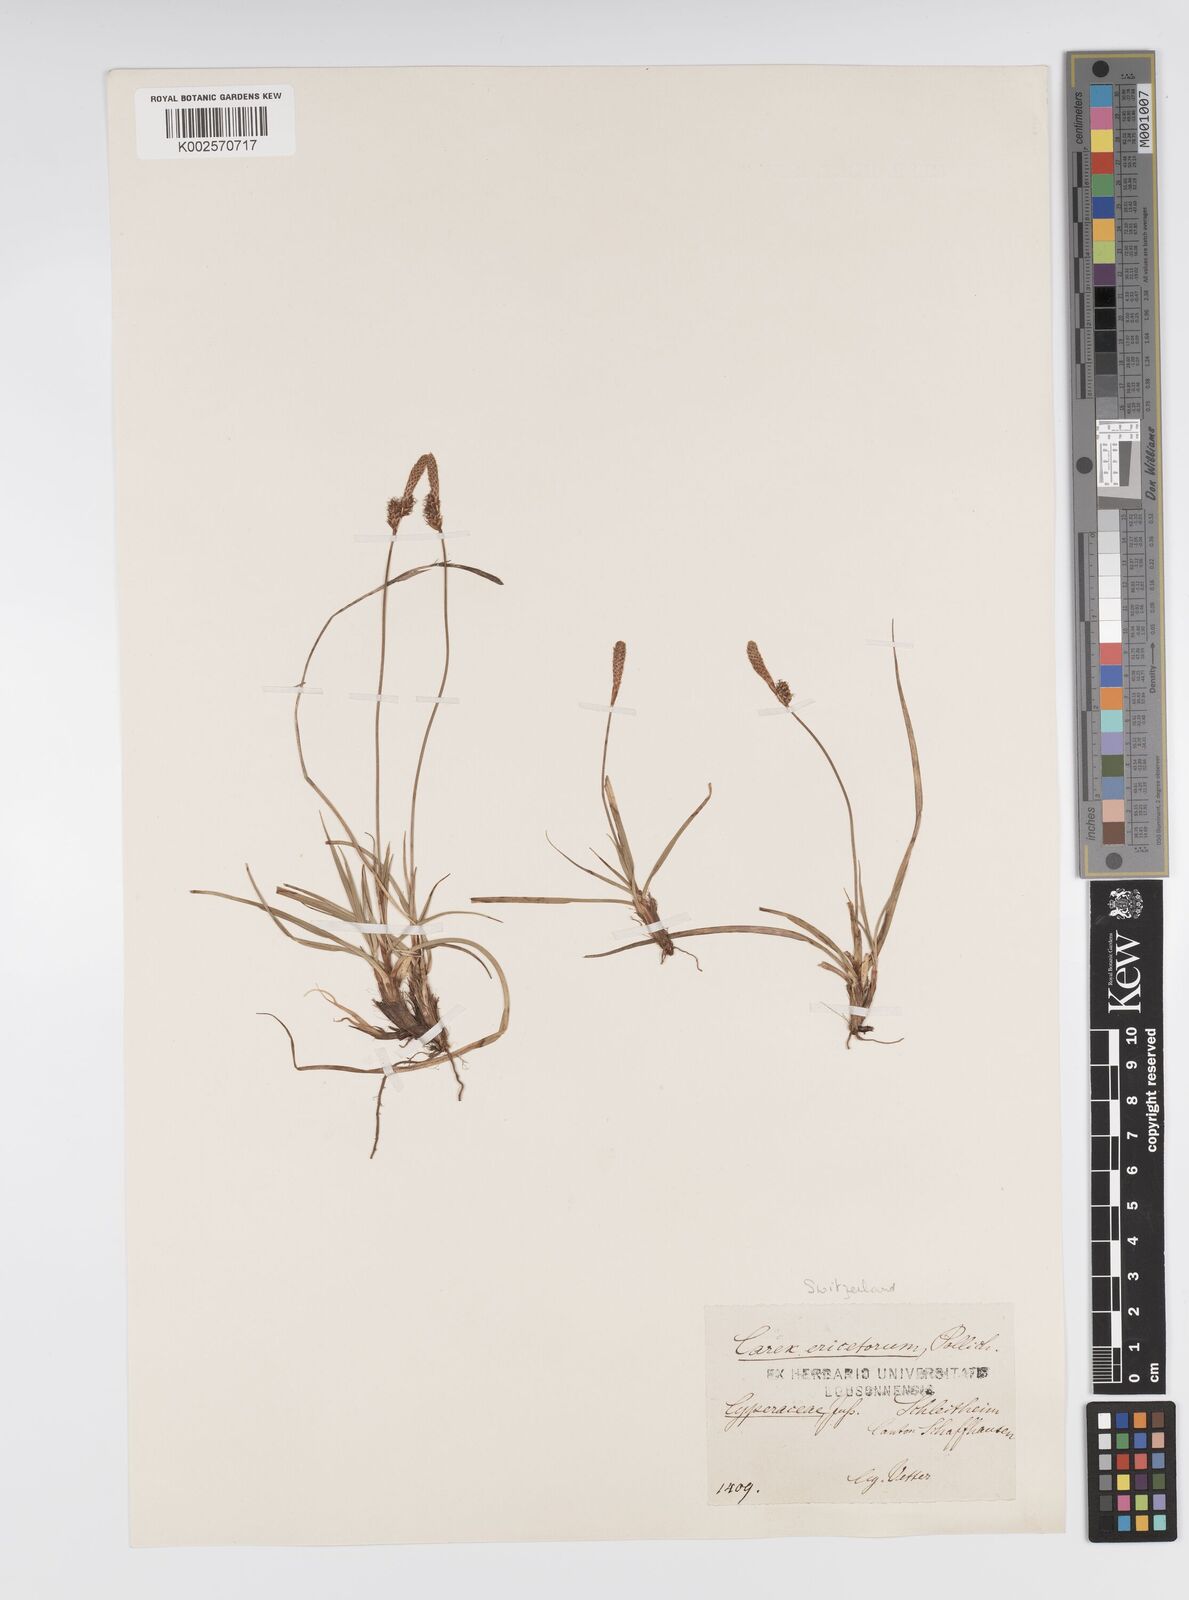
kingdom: Plantae
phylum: Tracheophyta
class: Liliopsida
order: Poales
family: Cyperaceae
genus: Carex
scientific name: Carex ericetorum
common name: Rare spring-sedge
